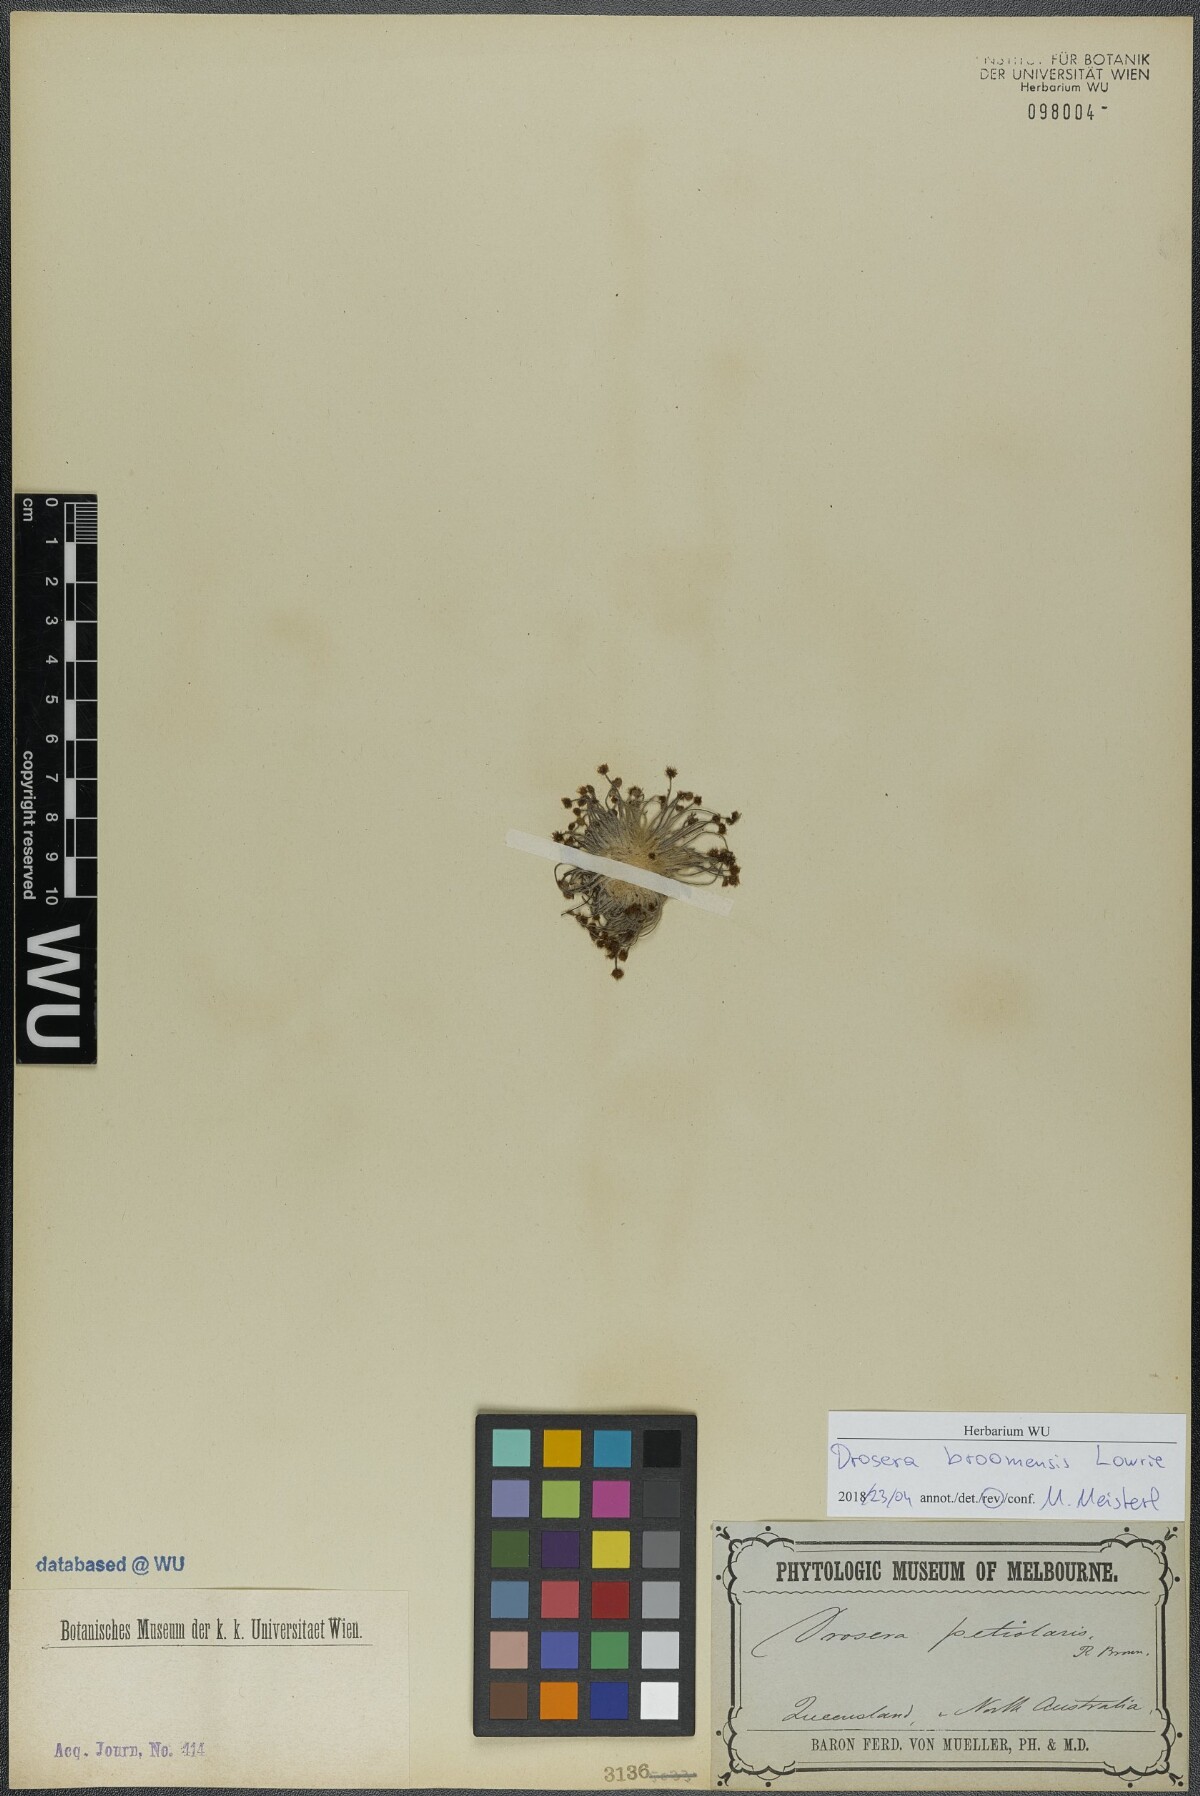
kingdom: Plantae
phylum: Tracheophyta
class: Magnoliopsida
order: Caryophyllales
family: Droseraceae
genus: Drosera
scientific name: Drosera broomensis
